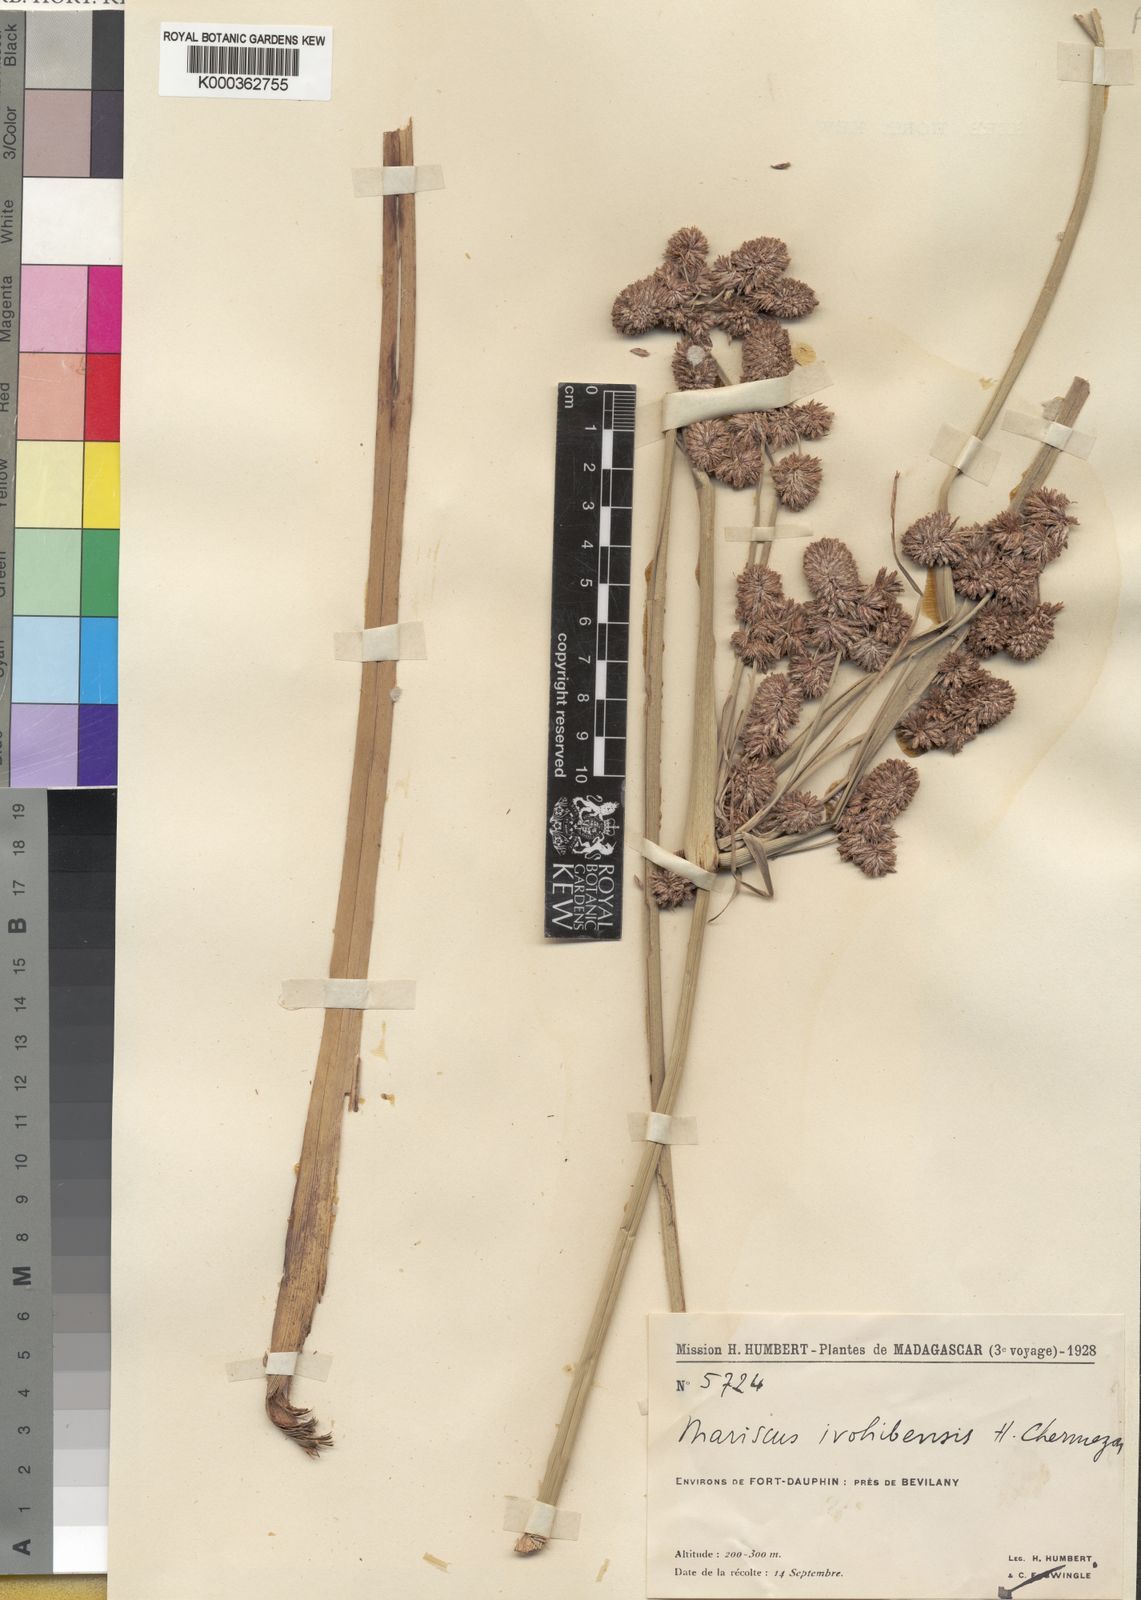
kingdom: Plantae
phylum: Tracheophyta
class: Liliopsida
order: Poales
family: Cyperaceae
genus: Cyperus
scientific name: Cyperus
